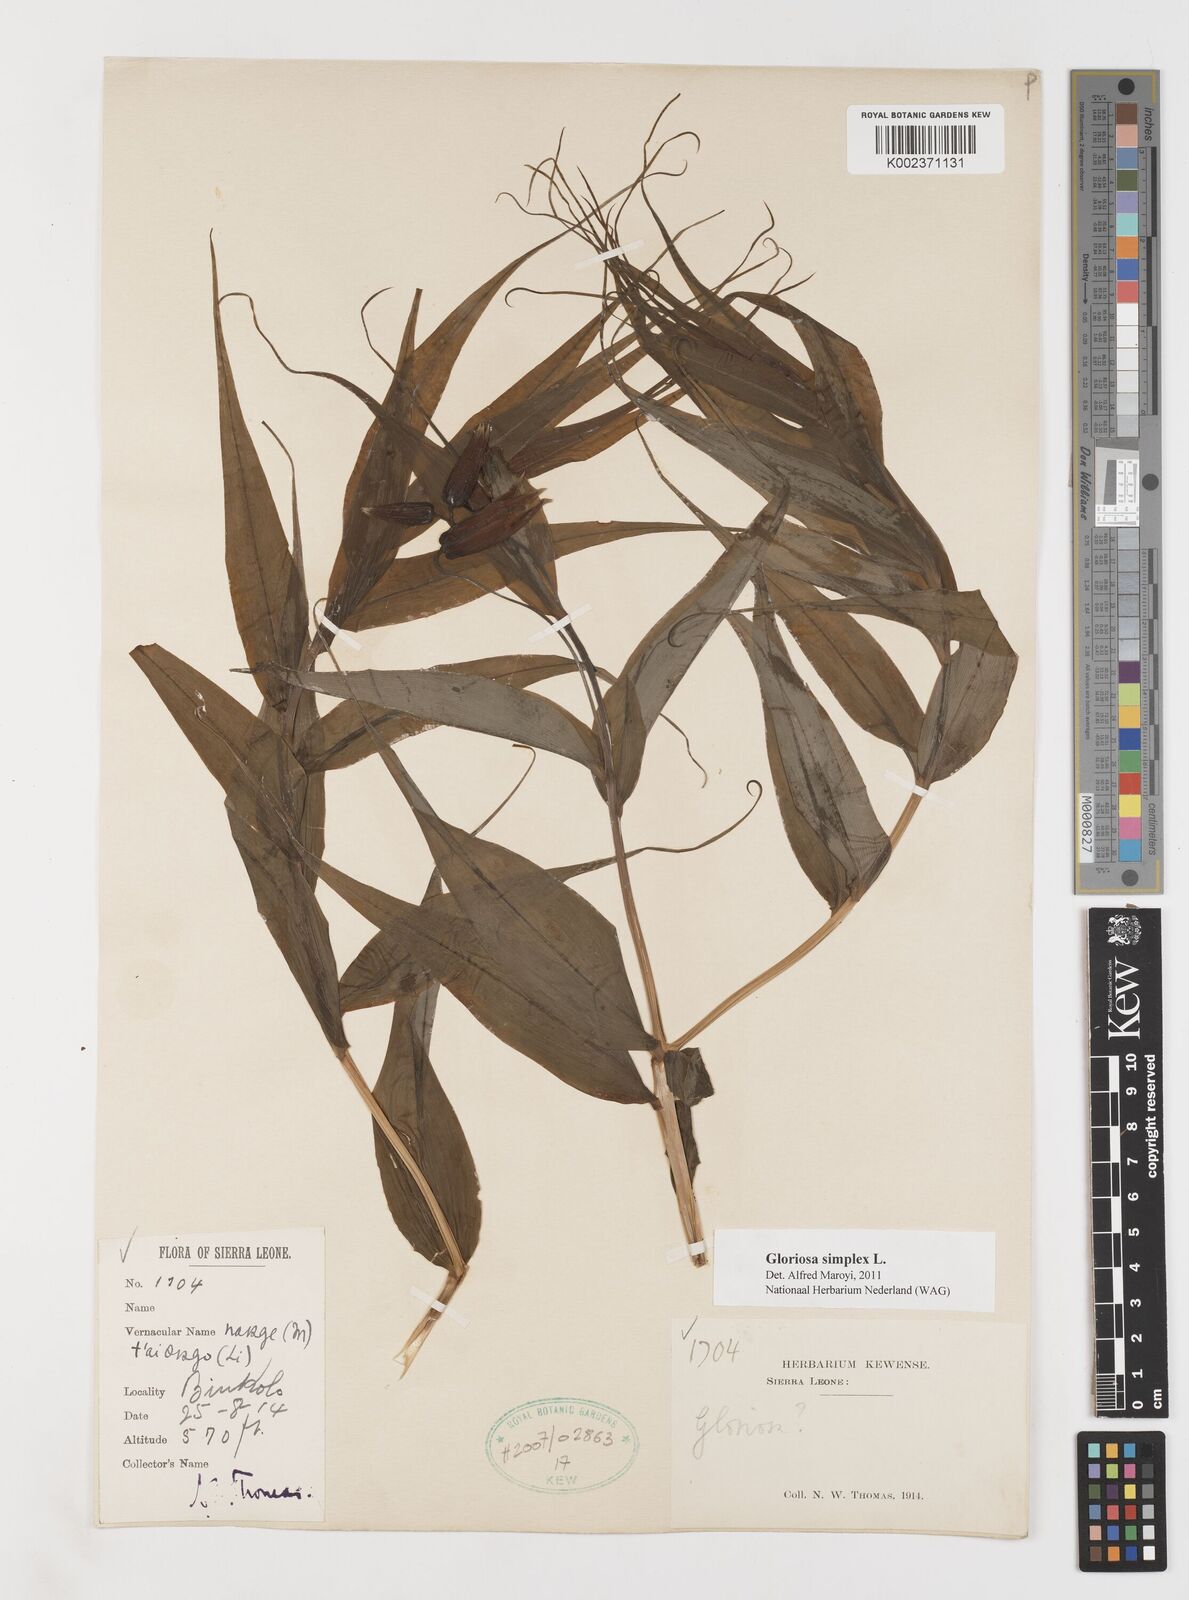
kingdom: Plantae
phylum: Tracheophyta
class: Liliopsida
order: Liliales
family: Colchicaceae
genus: Gloriosa
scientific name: Gloriosa simplex
